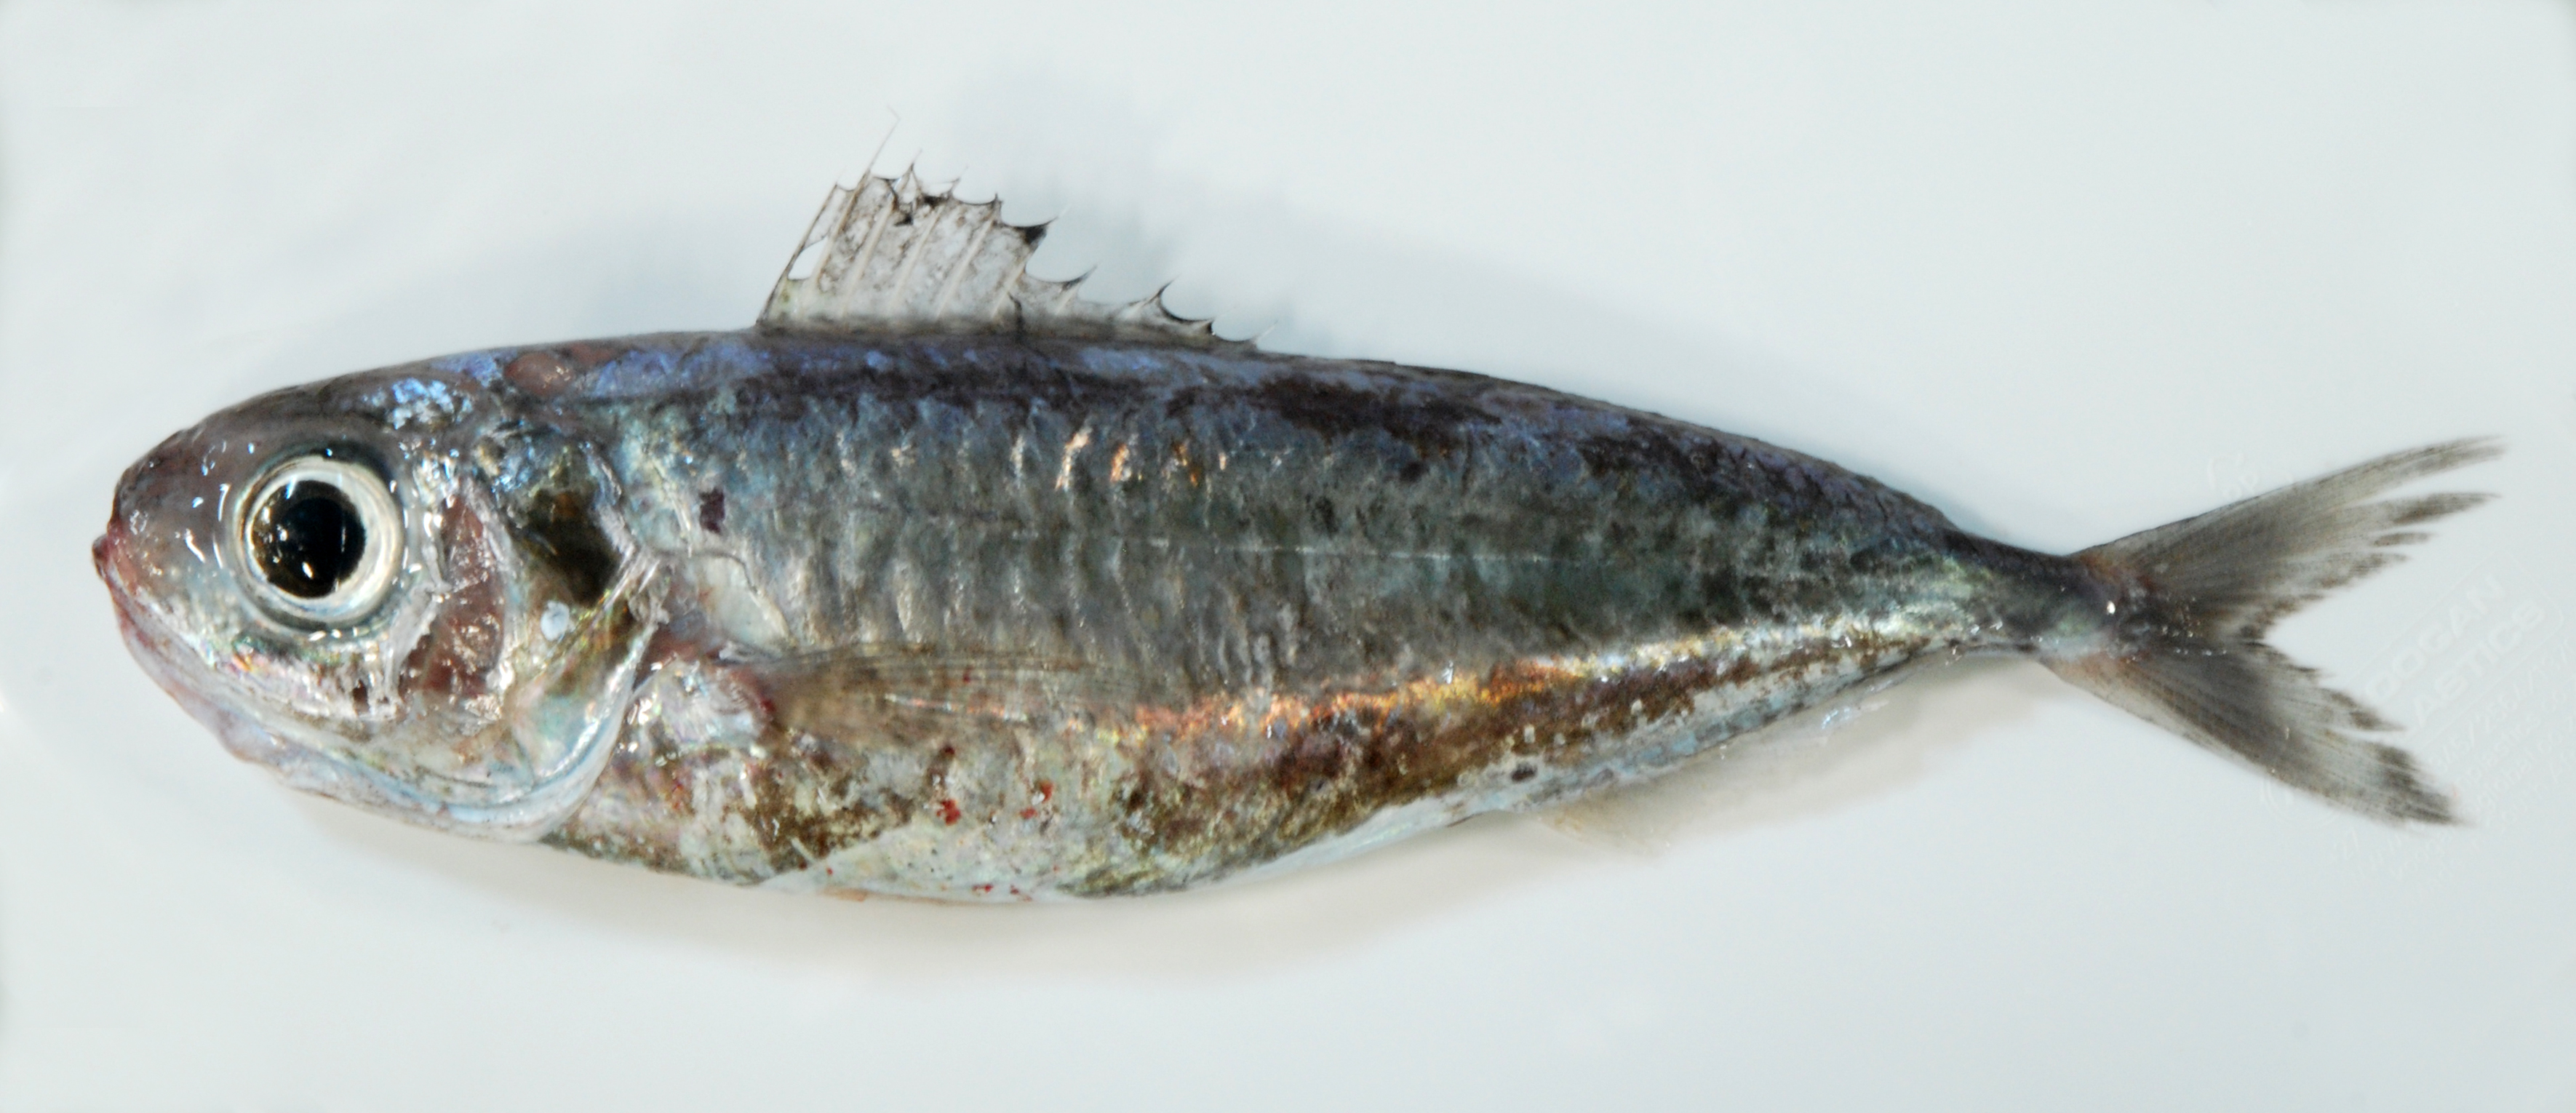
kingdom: Animalia
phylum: Chordata
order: Perciformes
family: Ariommatidae
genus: Ariomma
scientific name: Ariomma
